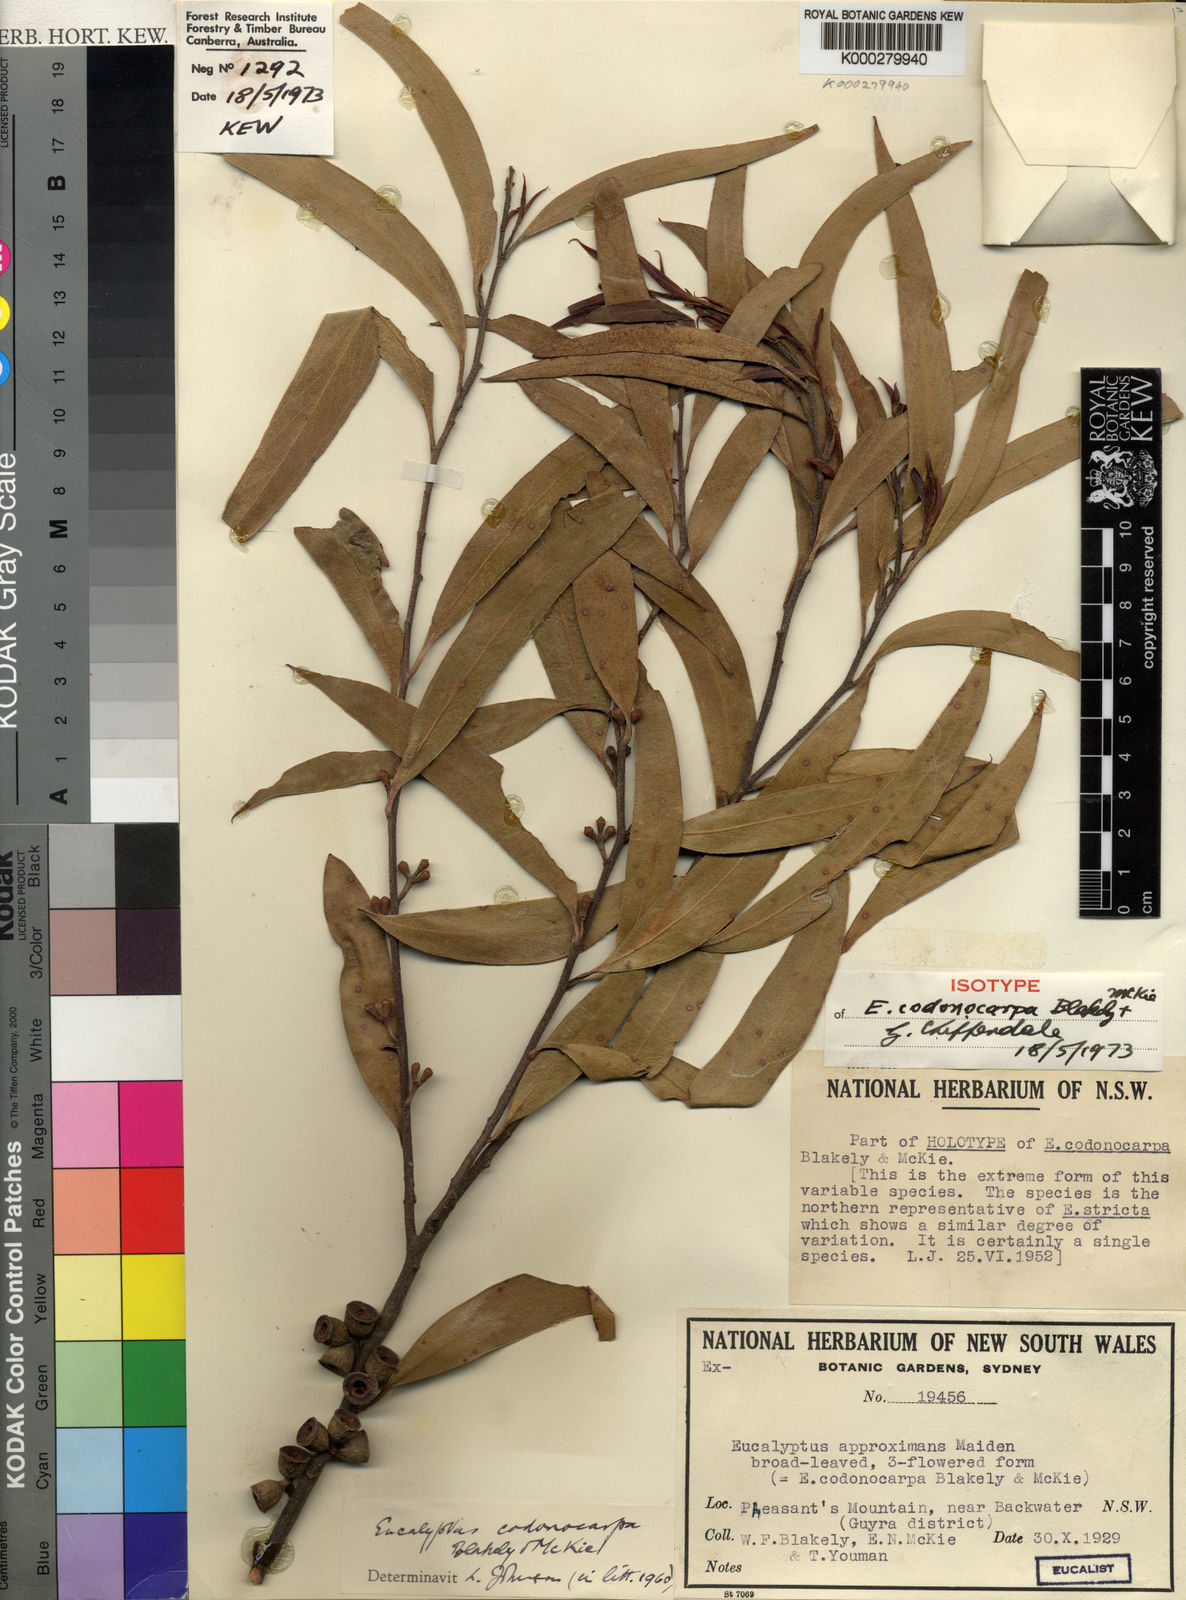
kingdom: Plantae
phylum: Tracheophyta
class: Magnoliopsida
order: Myrtales
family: Myrtaceae
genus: Eucalyptus
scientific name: Eucalyptus approximans
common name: New england mallee
